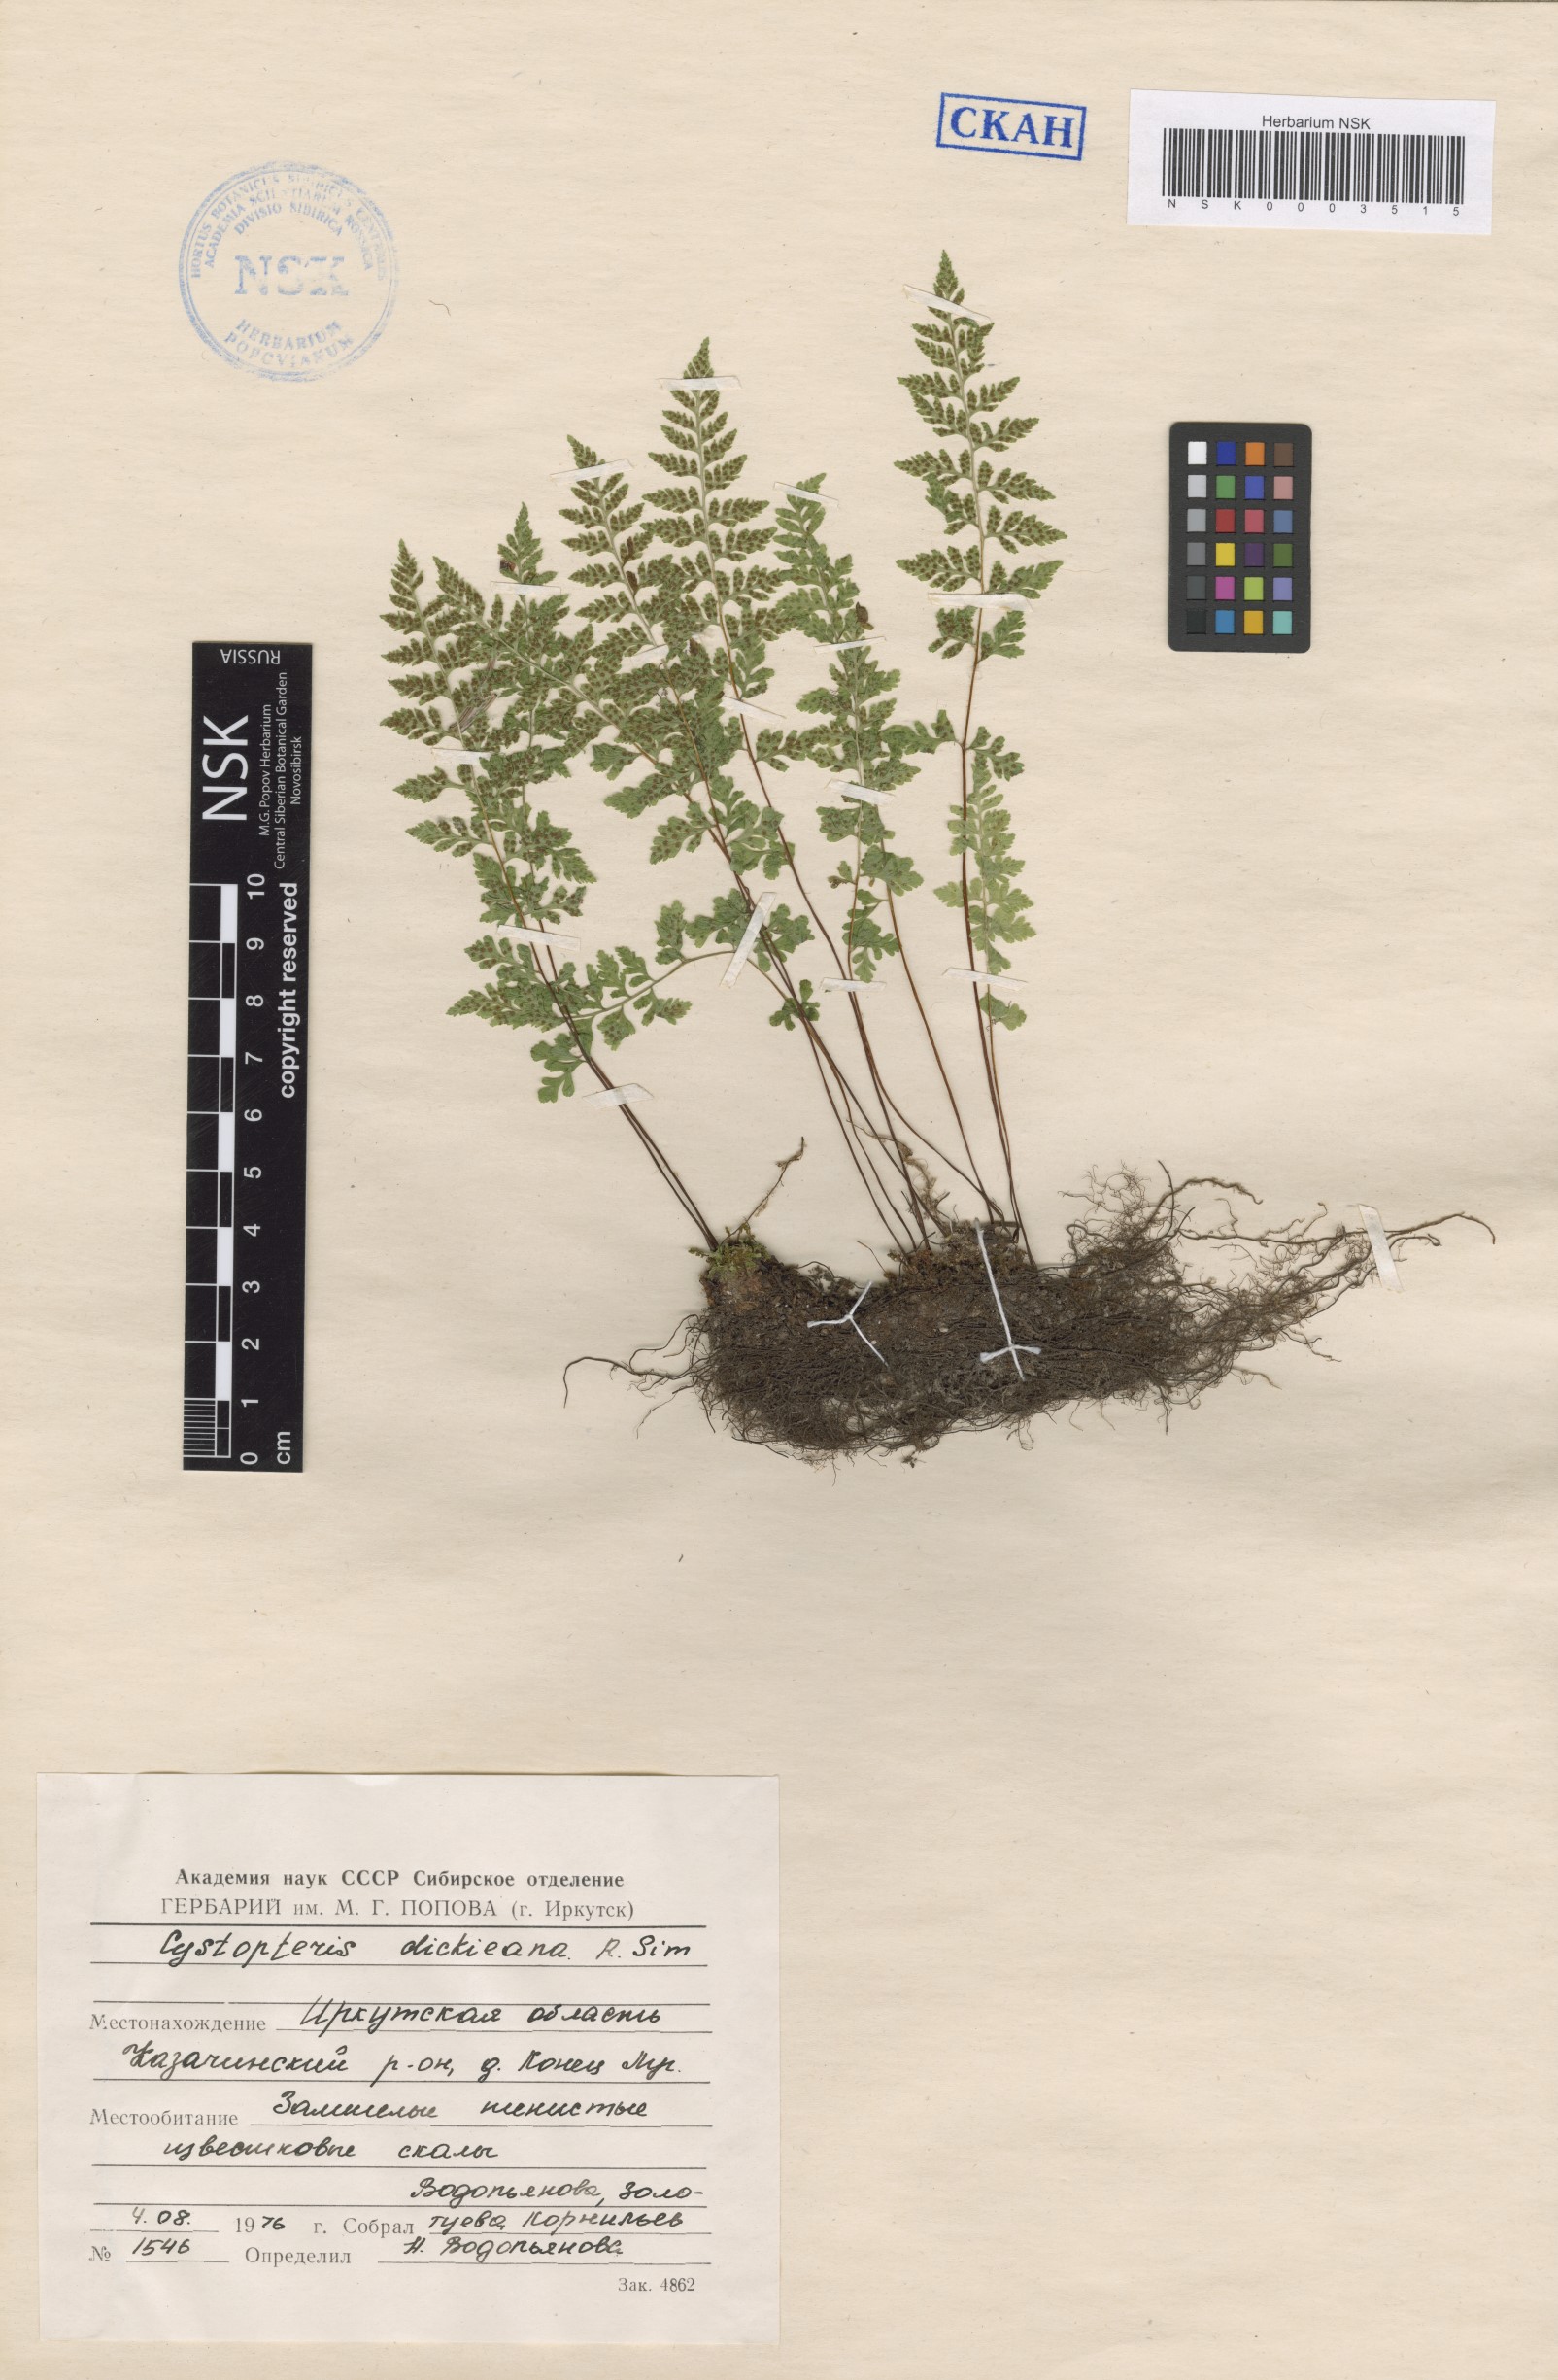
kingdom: Plantae
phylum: Tracheophyta
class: Polypodiopsida
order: Polypodiales
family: Cystopteridaceae
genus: Cystopteris
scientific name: Cystopteris dickieana
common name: Dickie's bladder-fern
